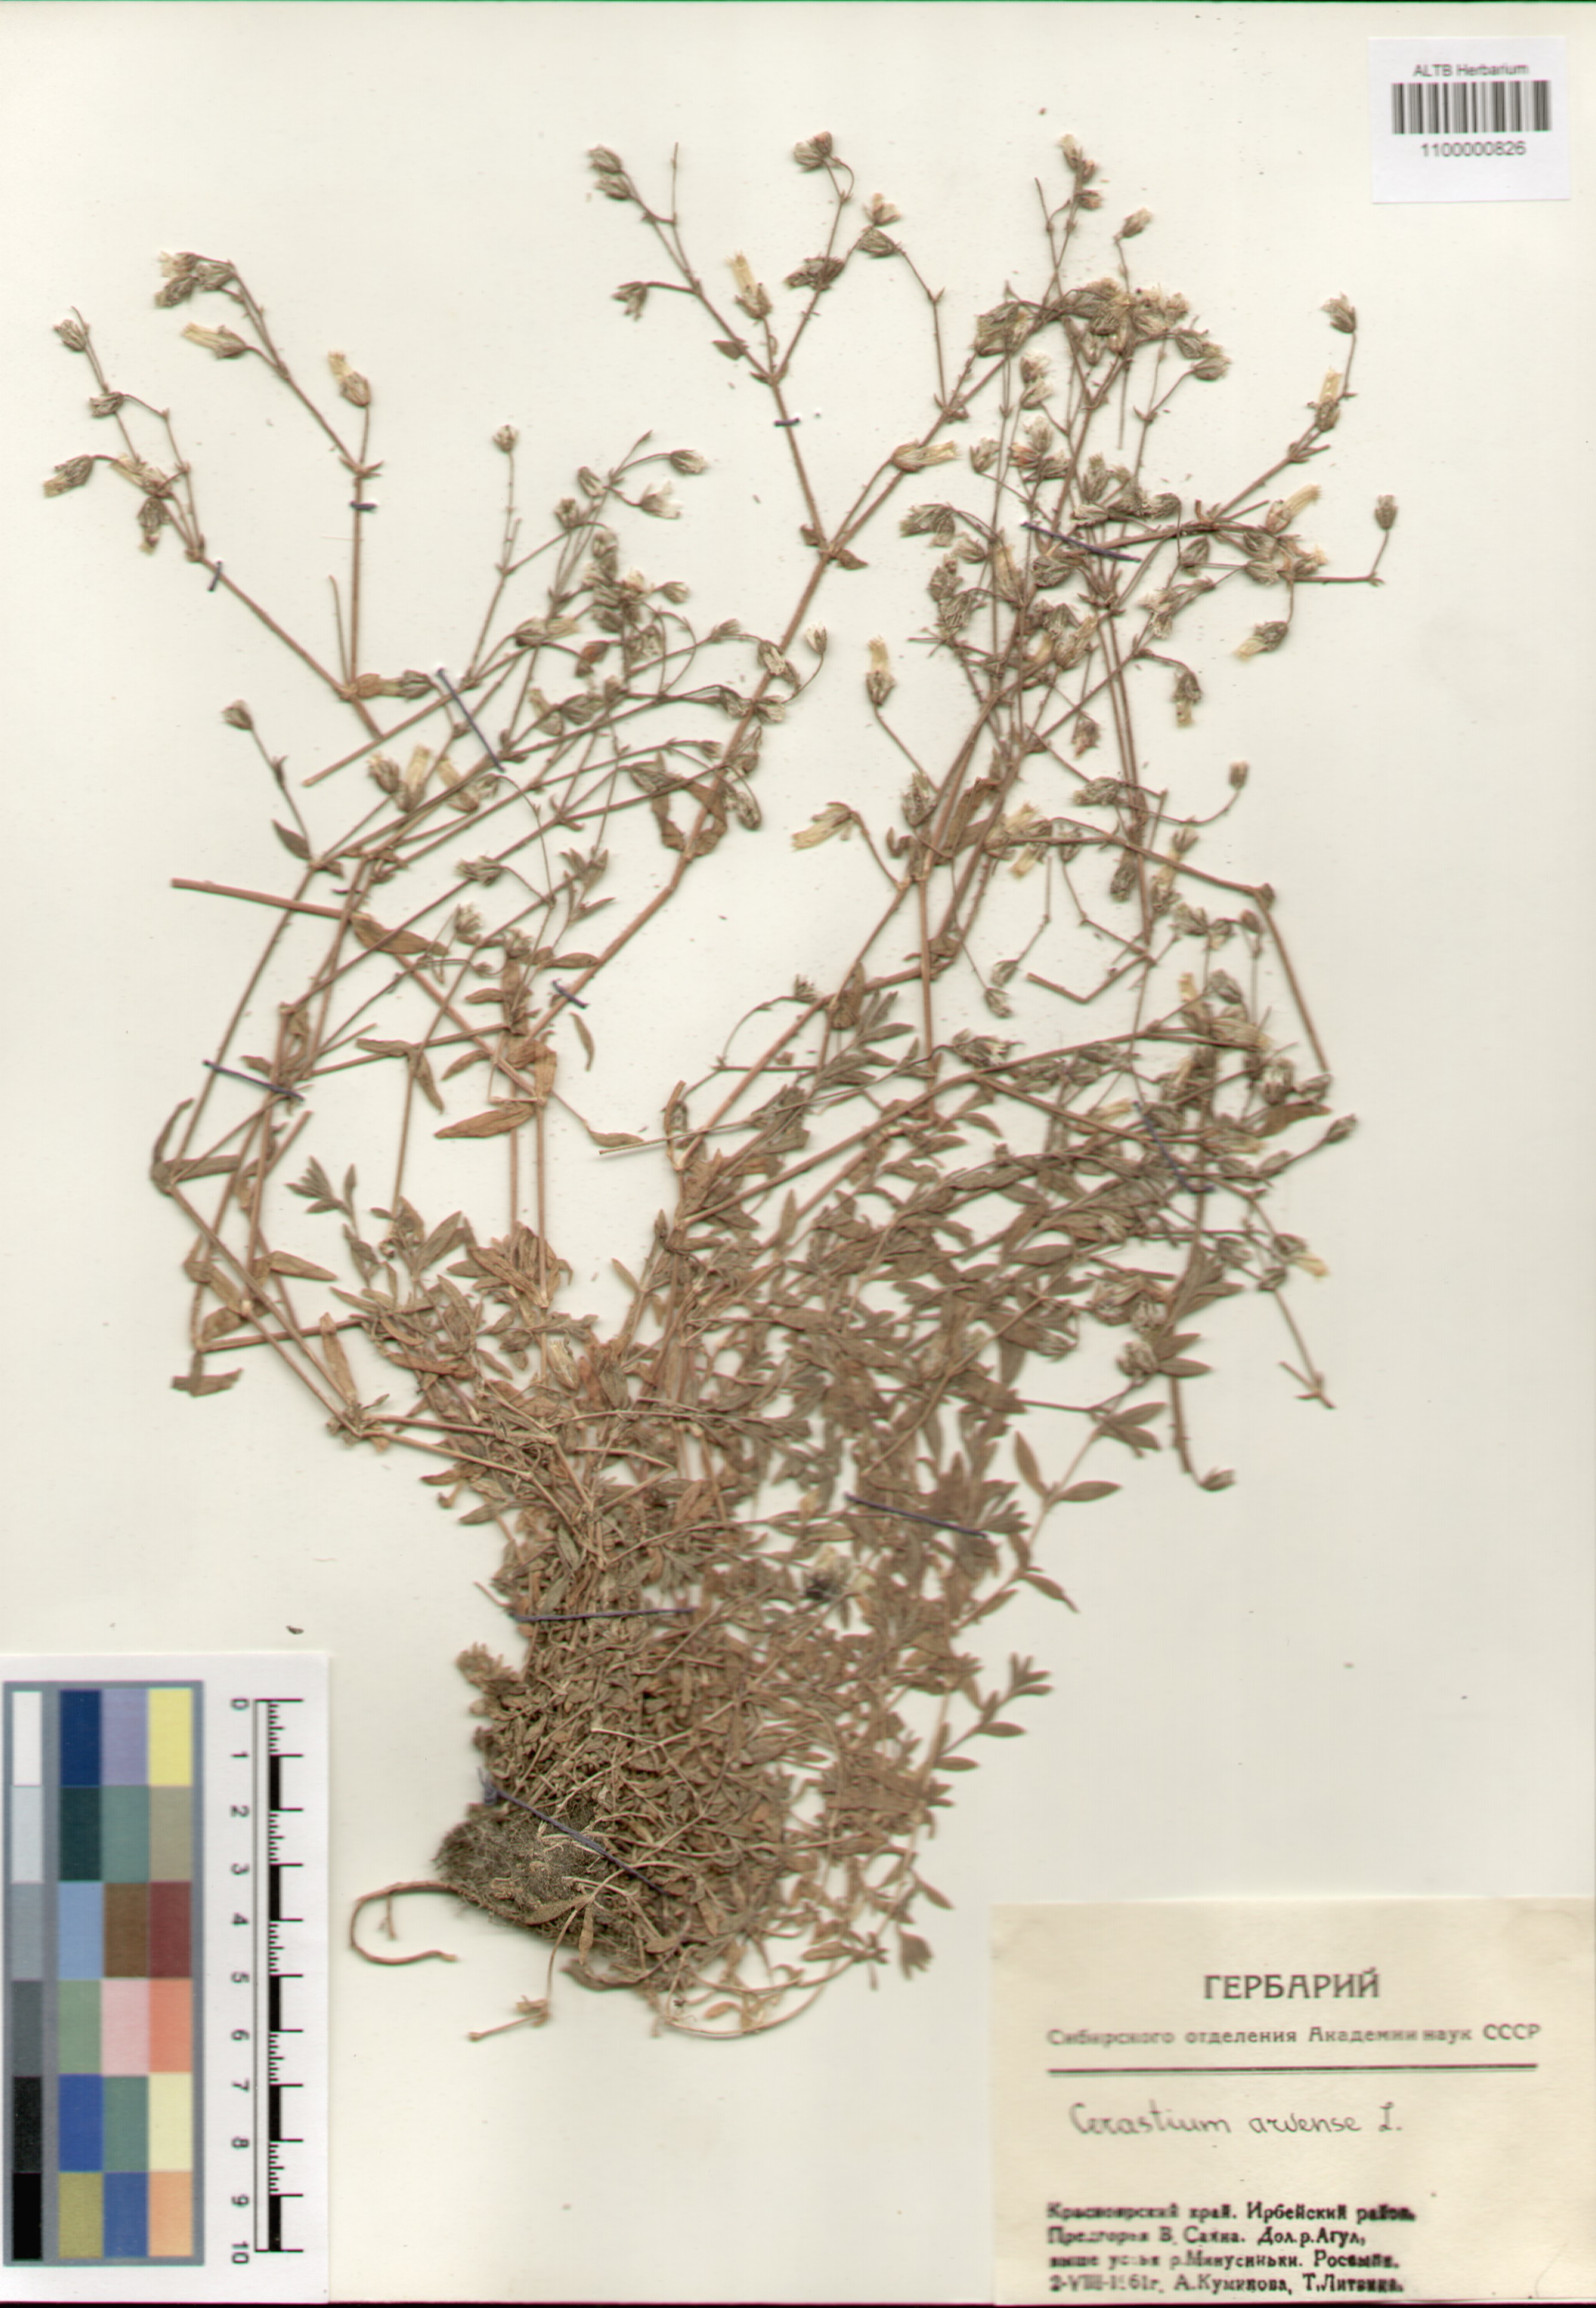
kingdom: Plantae
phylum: Tracheophyta
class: Magnoliopsida
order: Caryophyllales
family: Caryophyllaceae
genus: Cerastium
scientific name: Cerastium arvense
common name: Field mouse-ear
